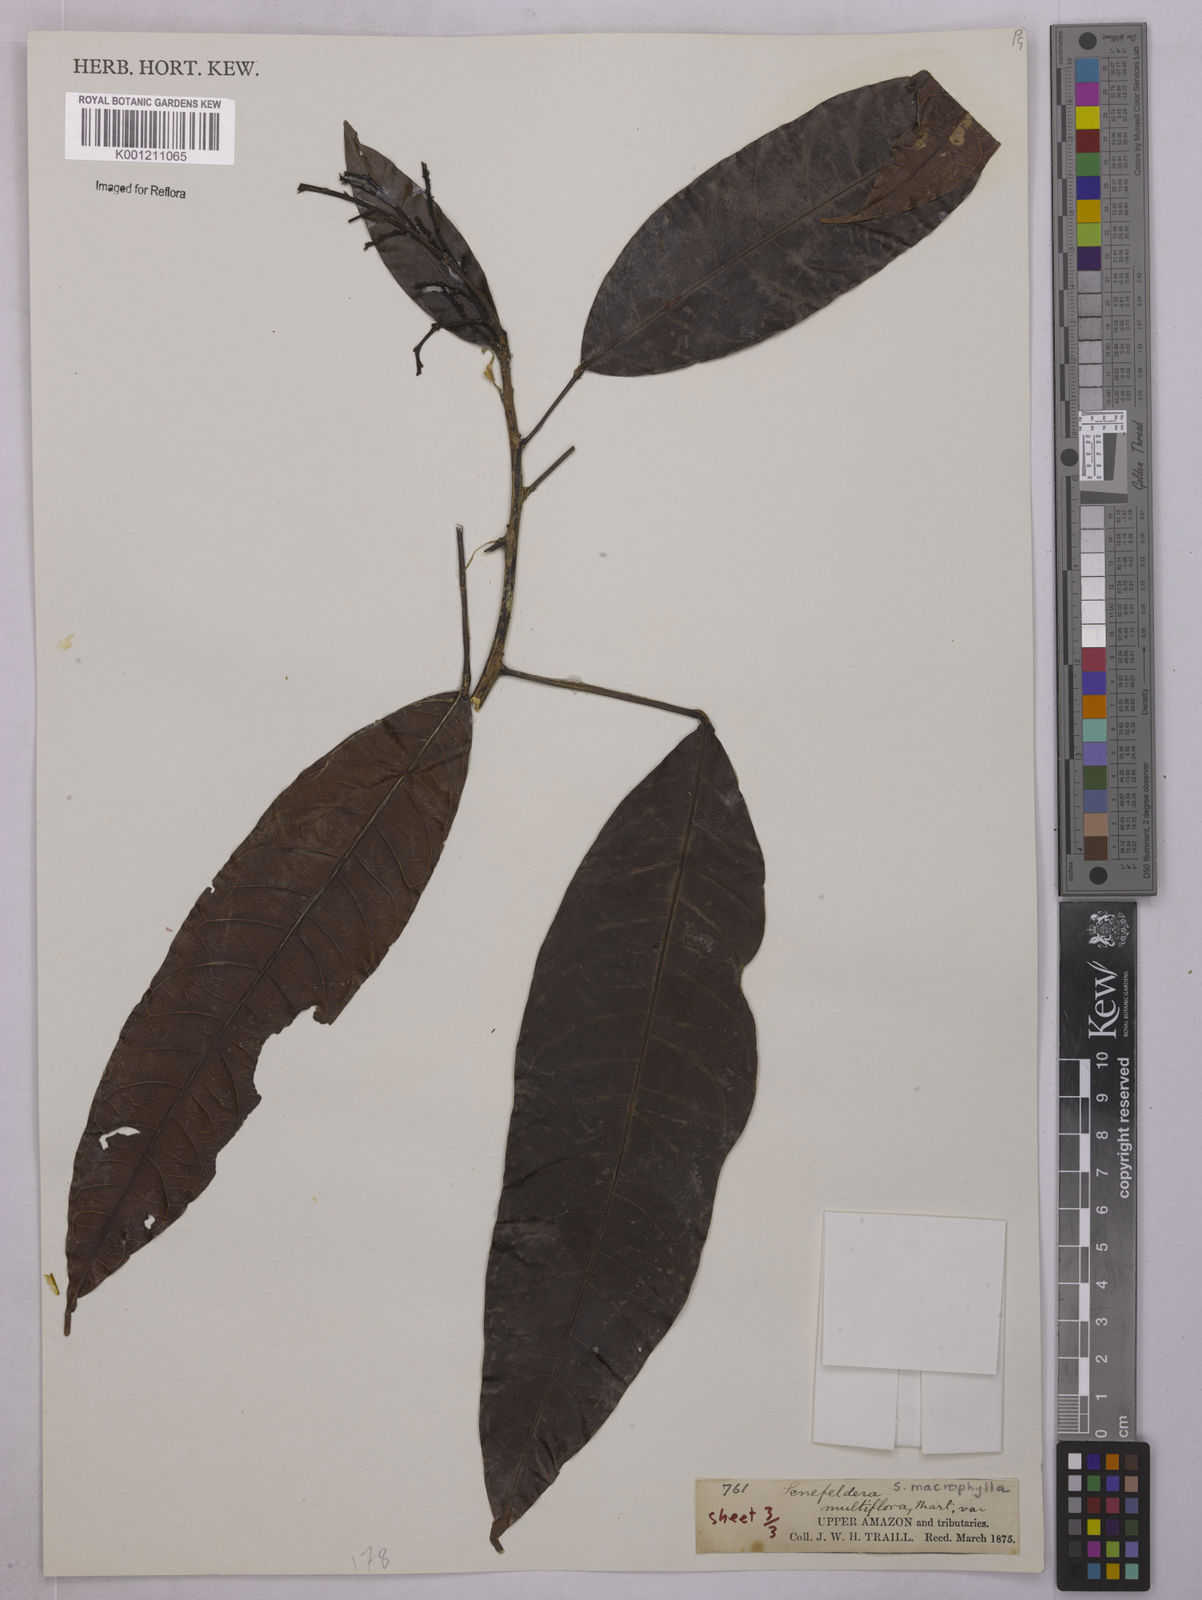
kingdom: Plantae
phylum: Tracheophyta
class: Magnoliopsida
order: Malpighiales
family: Euphorbiaceae
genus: Rhodothyrsus
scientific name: Rhodothyrsus macrophyllus
